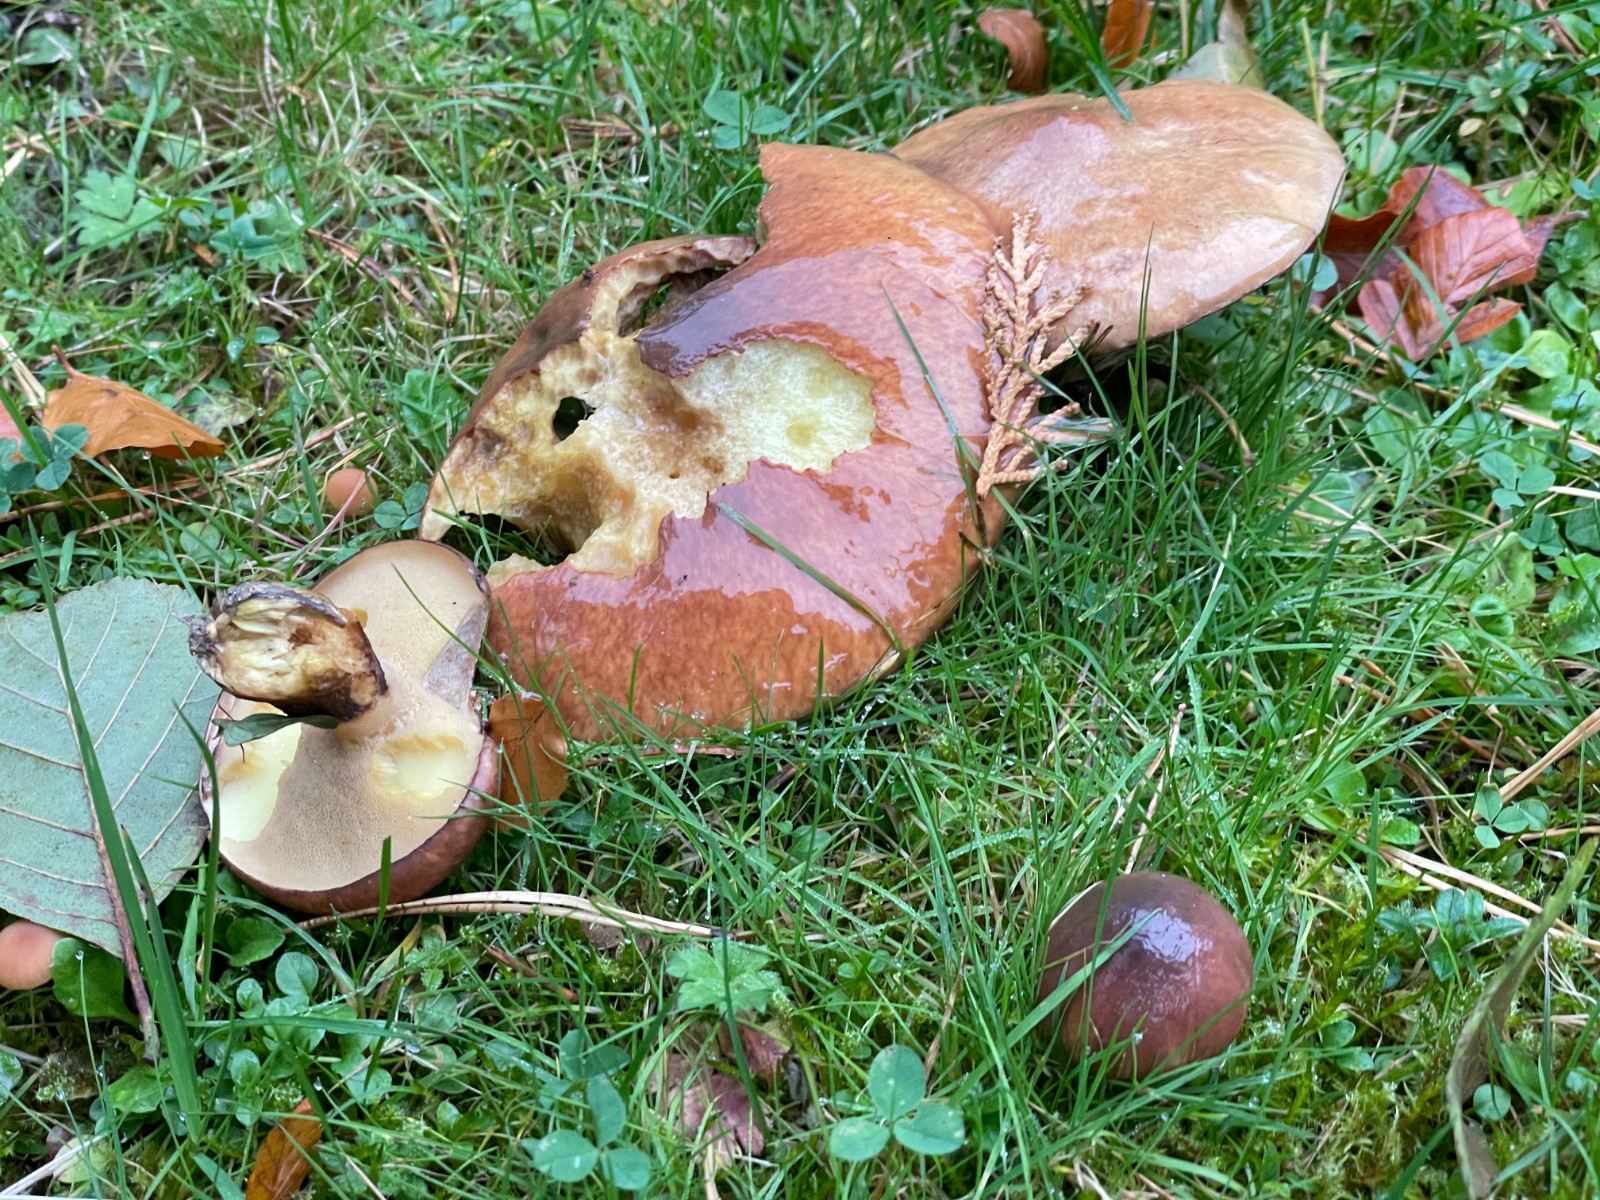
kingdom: Fungi
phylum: Basidiomycota
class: Agaricomycetes
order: Boletales
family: Suillaceae
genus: Suillus
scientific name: Suillus luteus
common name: brungul slimrørhat
